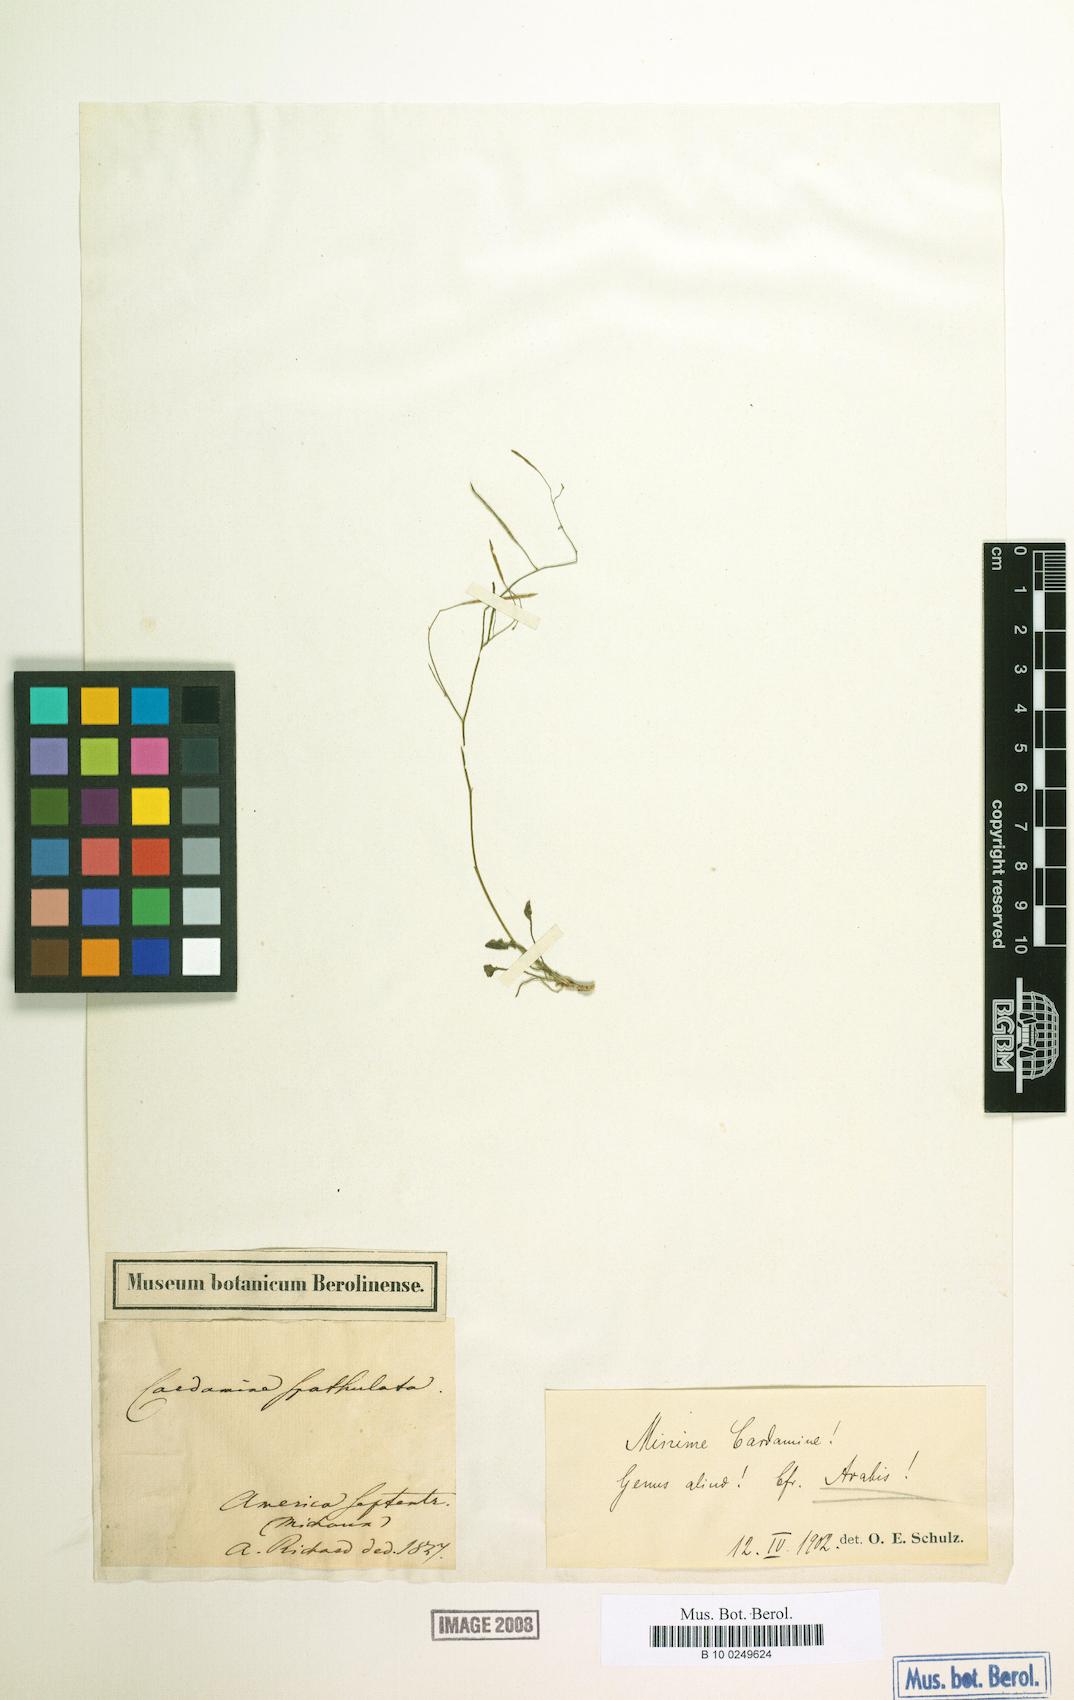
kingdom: Plantae
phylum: Tracheophyta
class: Magnoliopsida
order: Brassicales
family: Brassicaceae
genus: Arabidopsis
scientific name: Arabidopsis lyrata
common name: Lyrate rockcress
